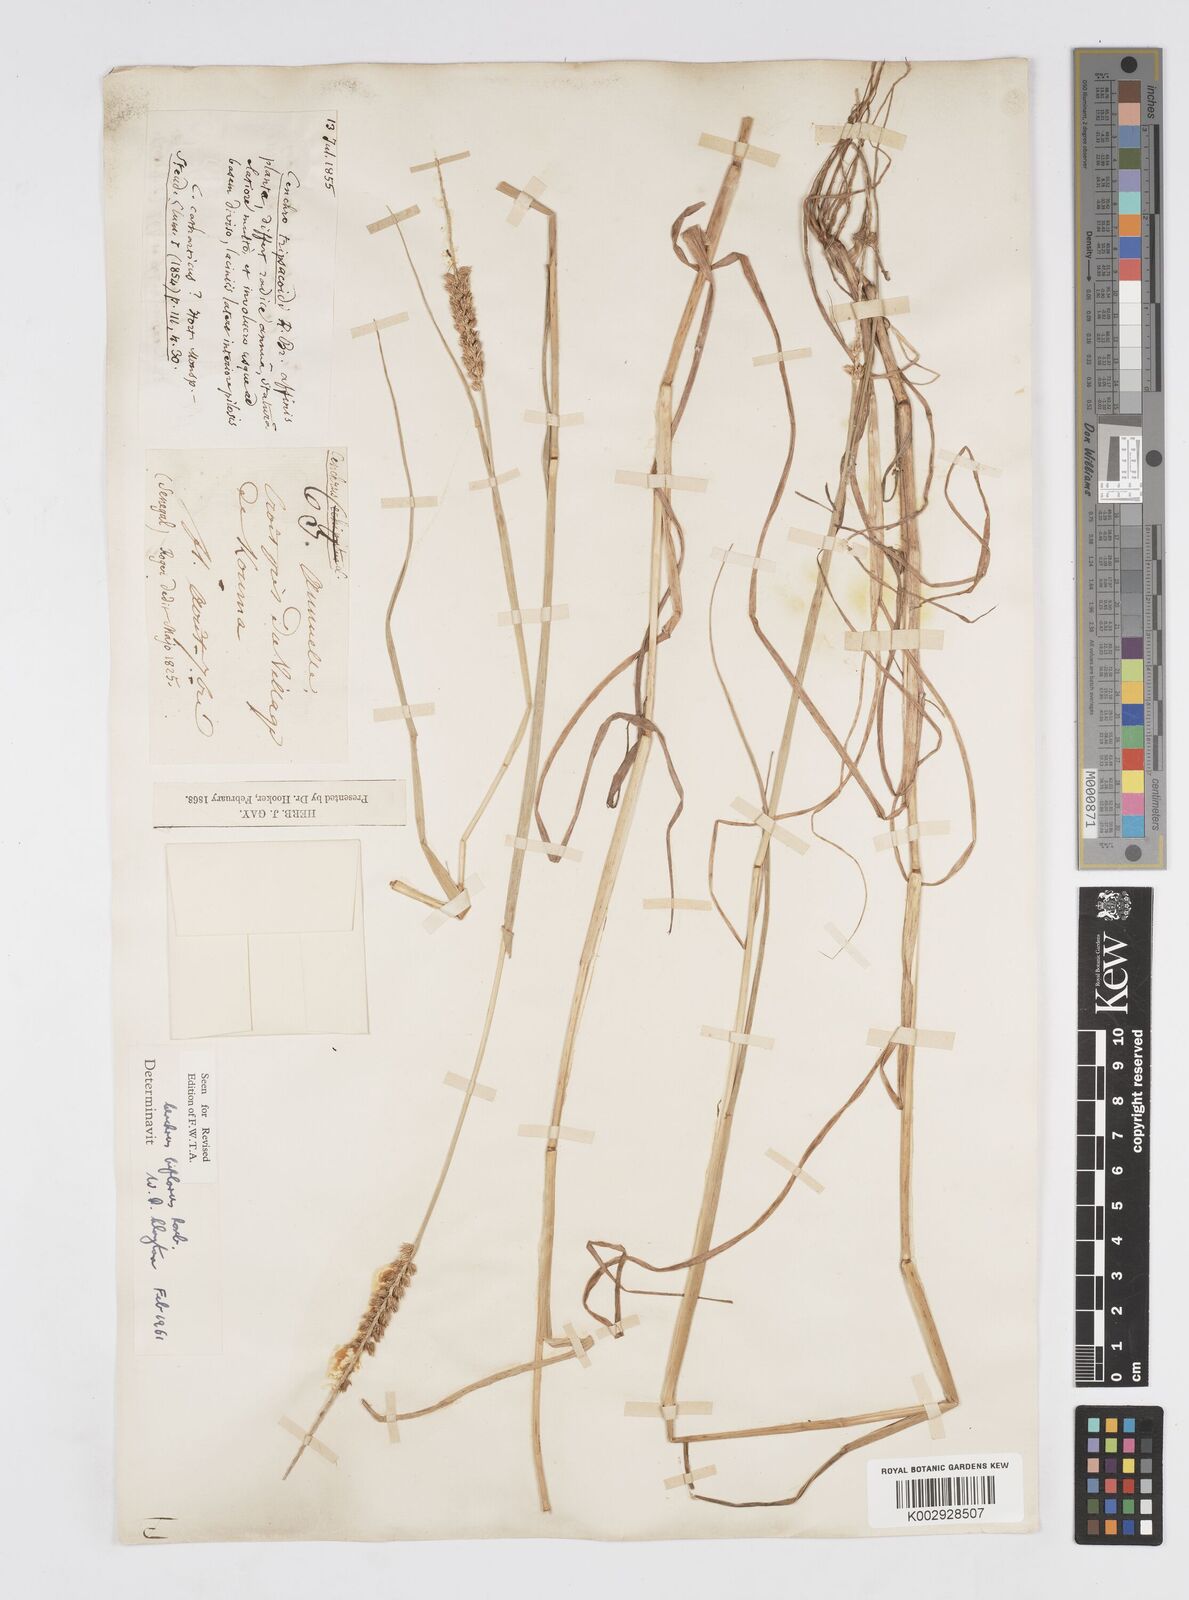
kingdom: Plantae
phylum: Tracheophyta
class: Liliopsida
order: Poales
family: Poaceae
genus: Cenchrus
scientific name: Cenchrus biflorus
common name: Indian sandbur
